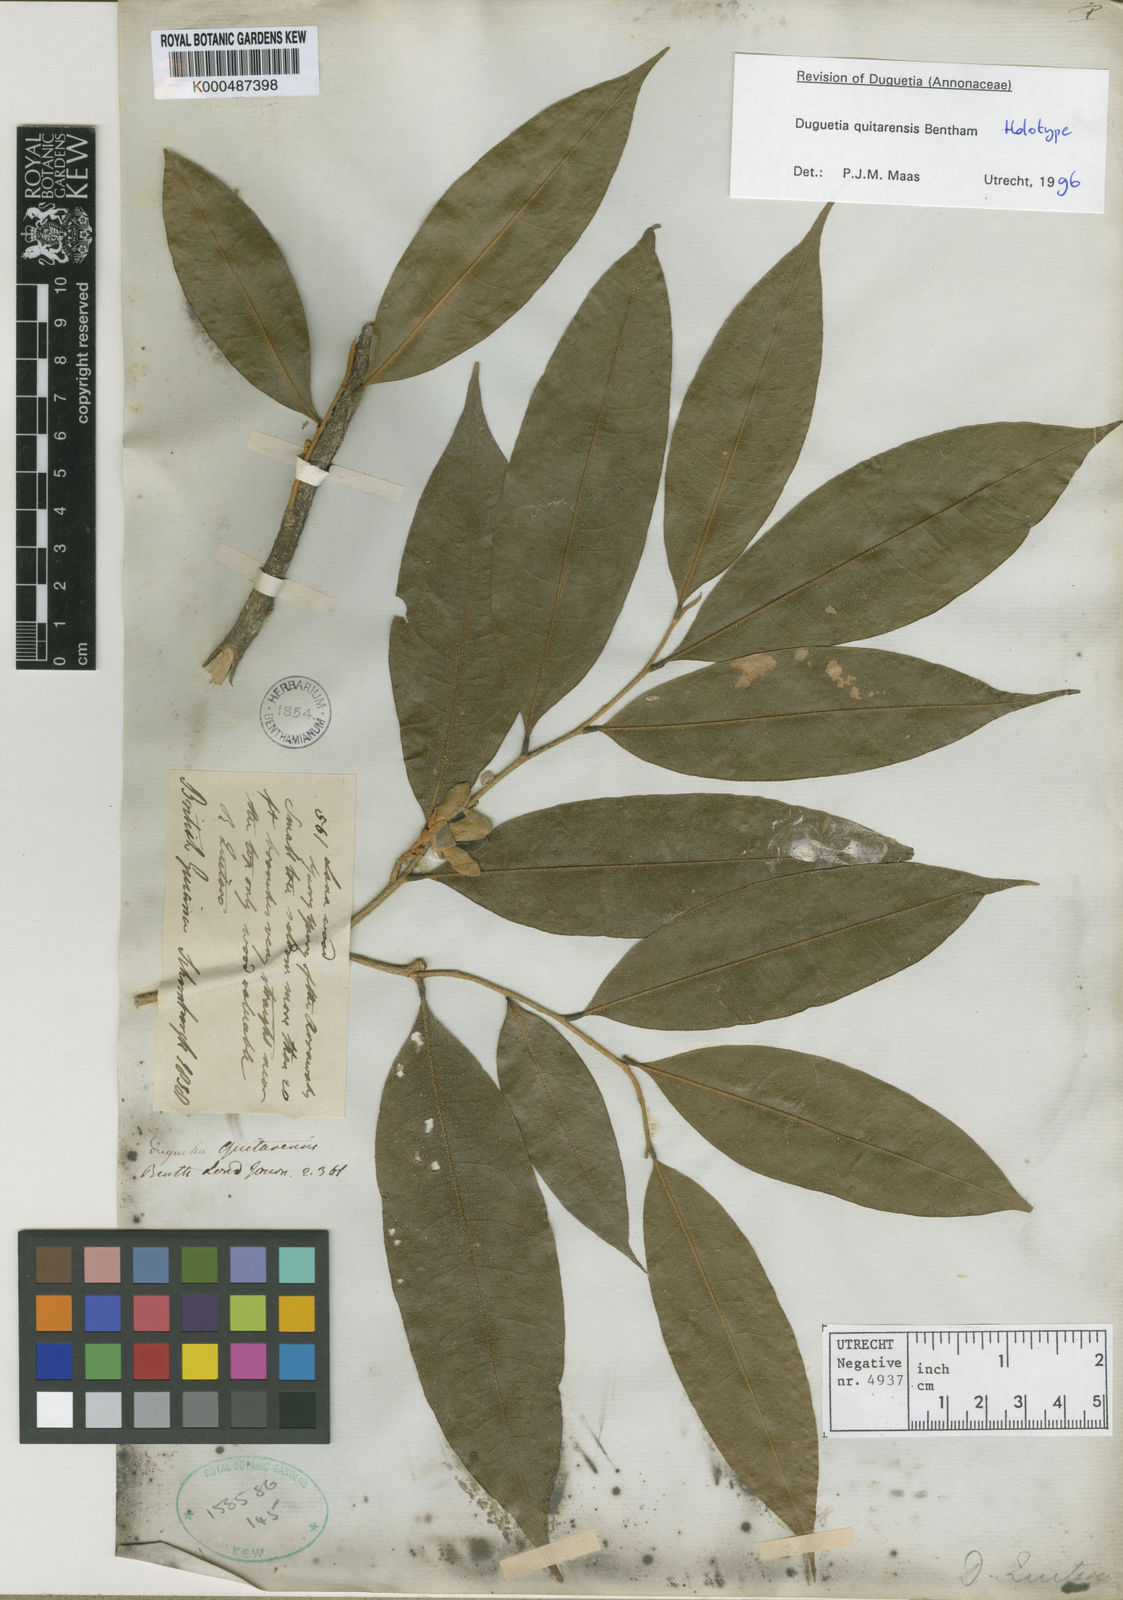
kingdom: Plantae
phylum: Tracheophyta
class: Magnoliopsida
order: Magnoliales
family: Annonaceae
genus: Duguetia
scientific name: Duguetia quitarensis
